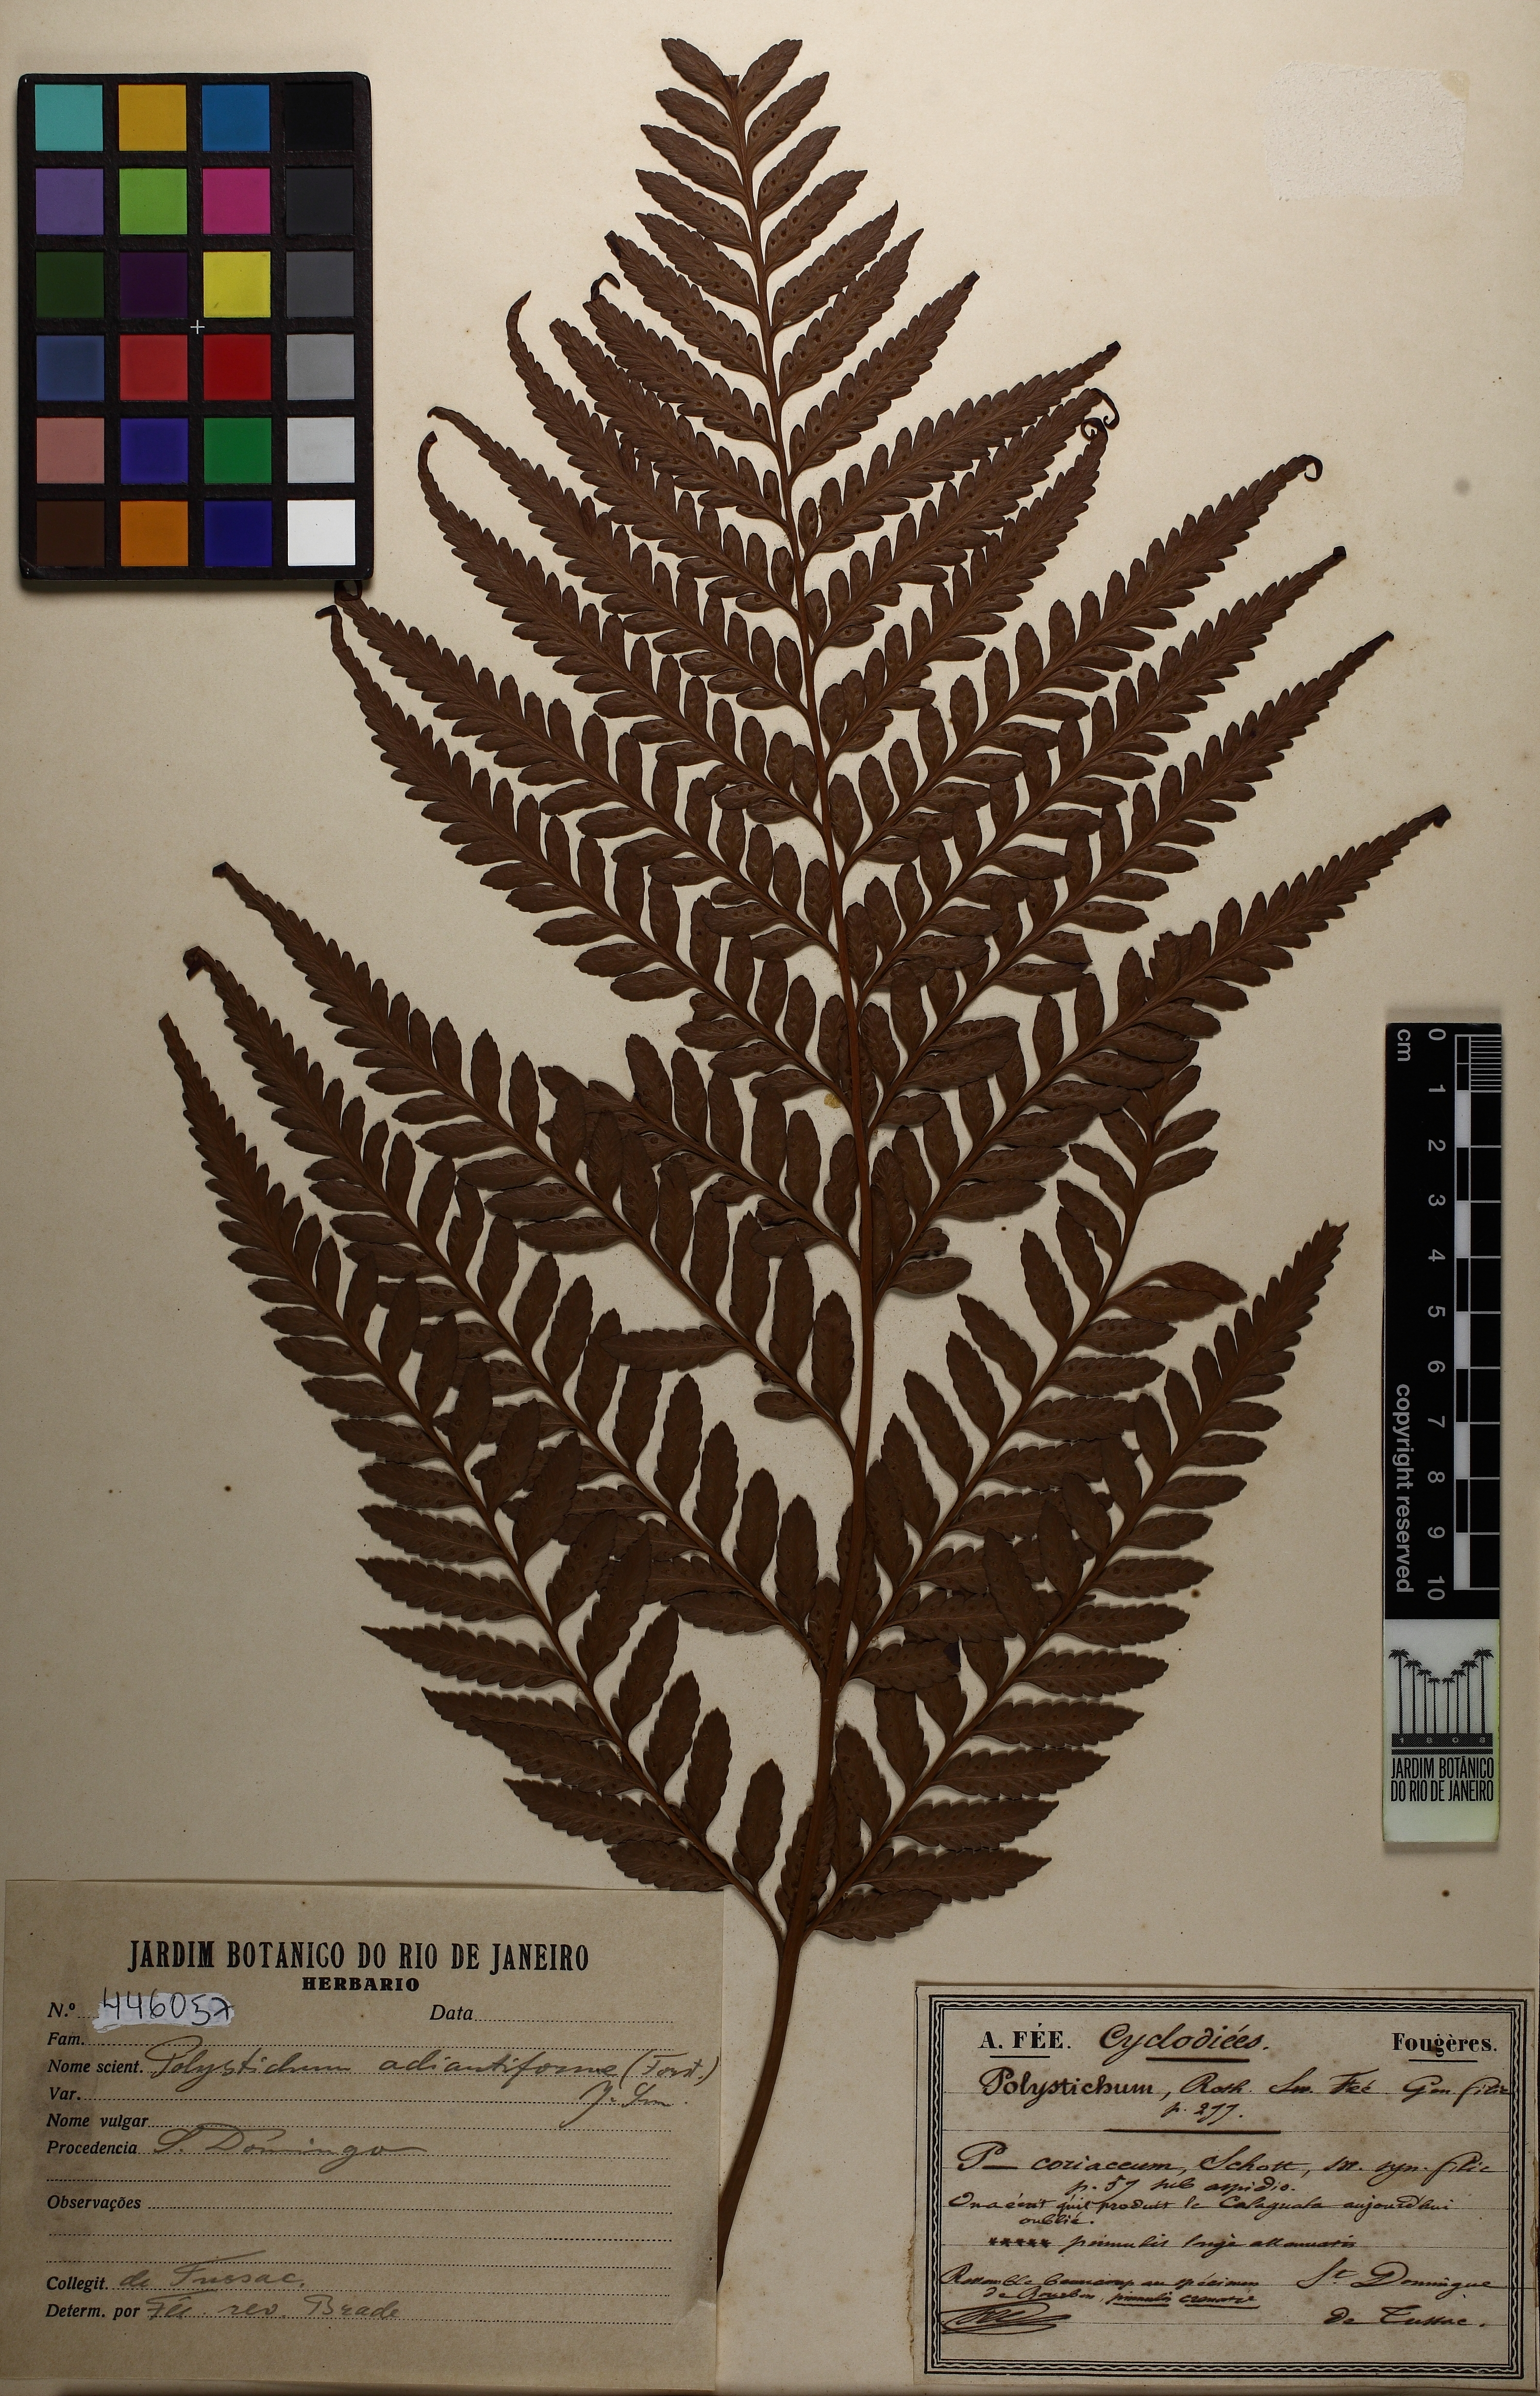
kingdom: Plantae
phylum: Tracheophyta
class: Polypodiopsida
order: Polypodiales
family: Dryopteridaceae
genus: Rumohra
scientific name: Rumohra adiantiformis
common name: Leather fern
